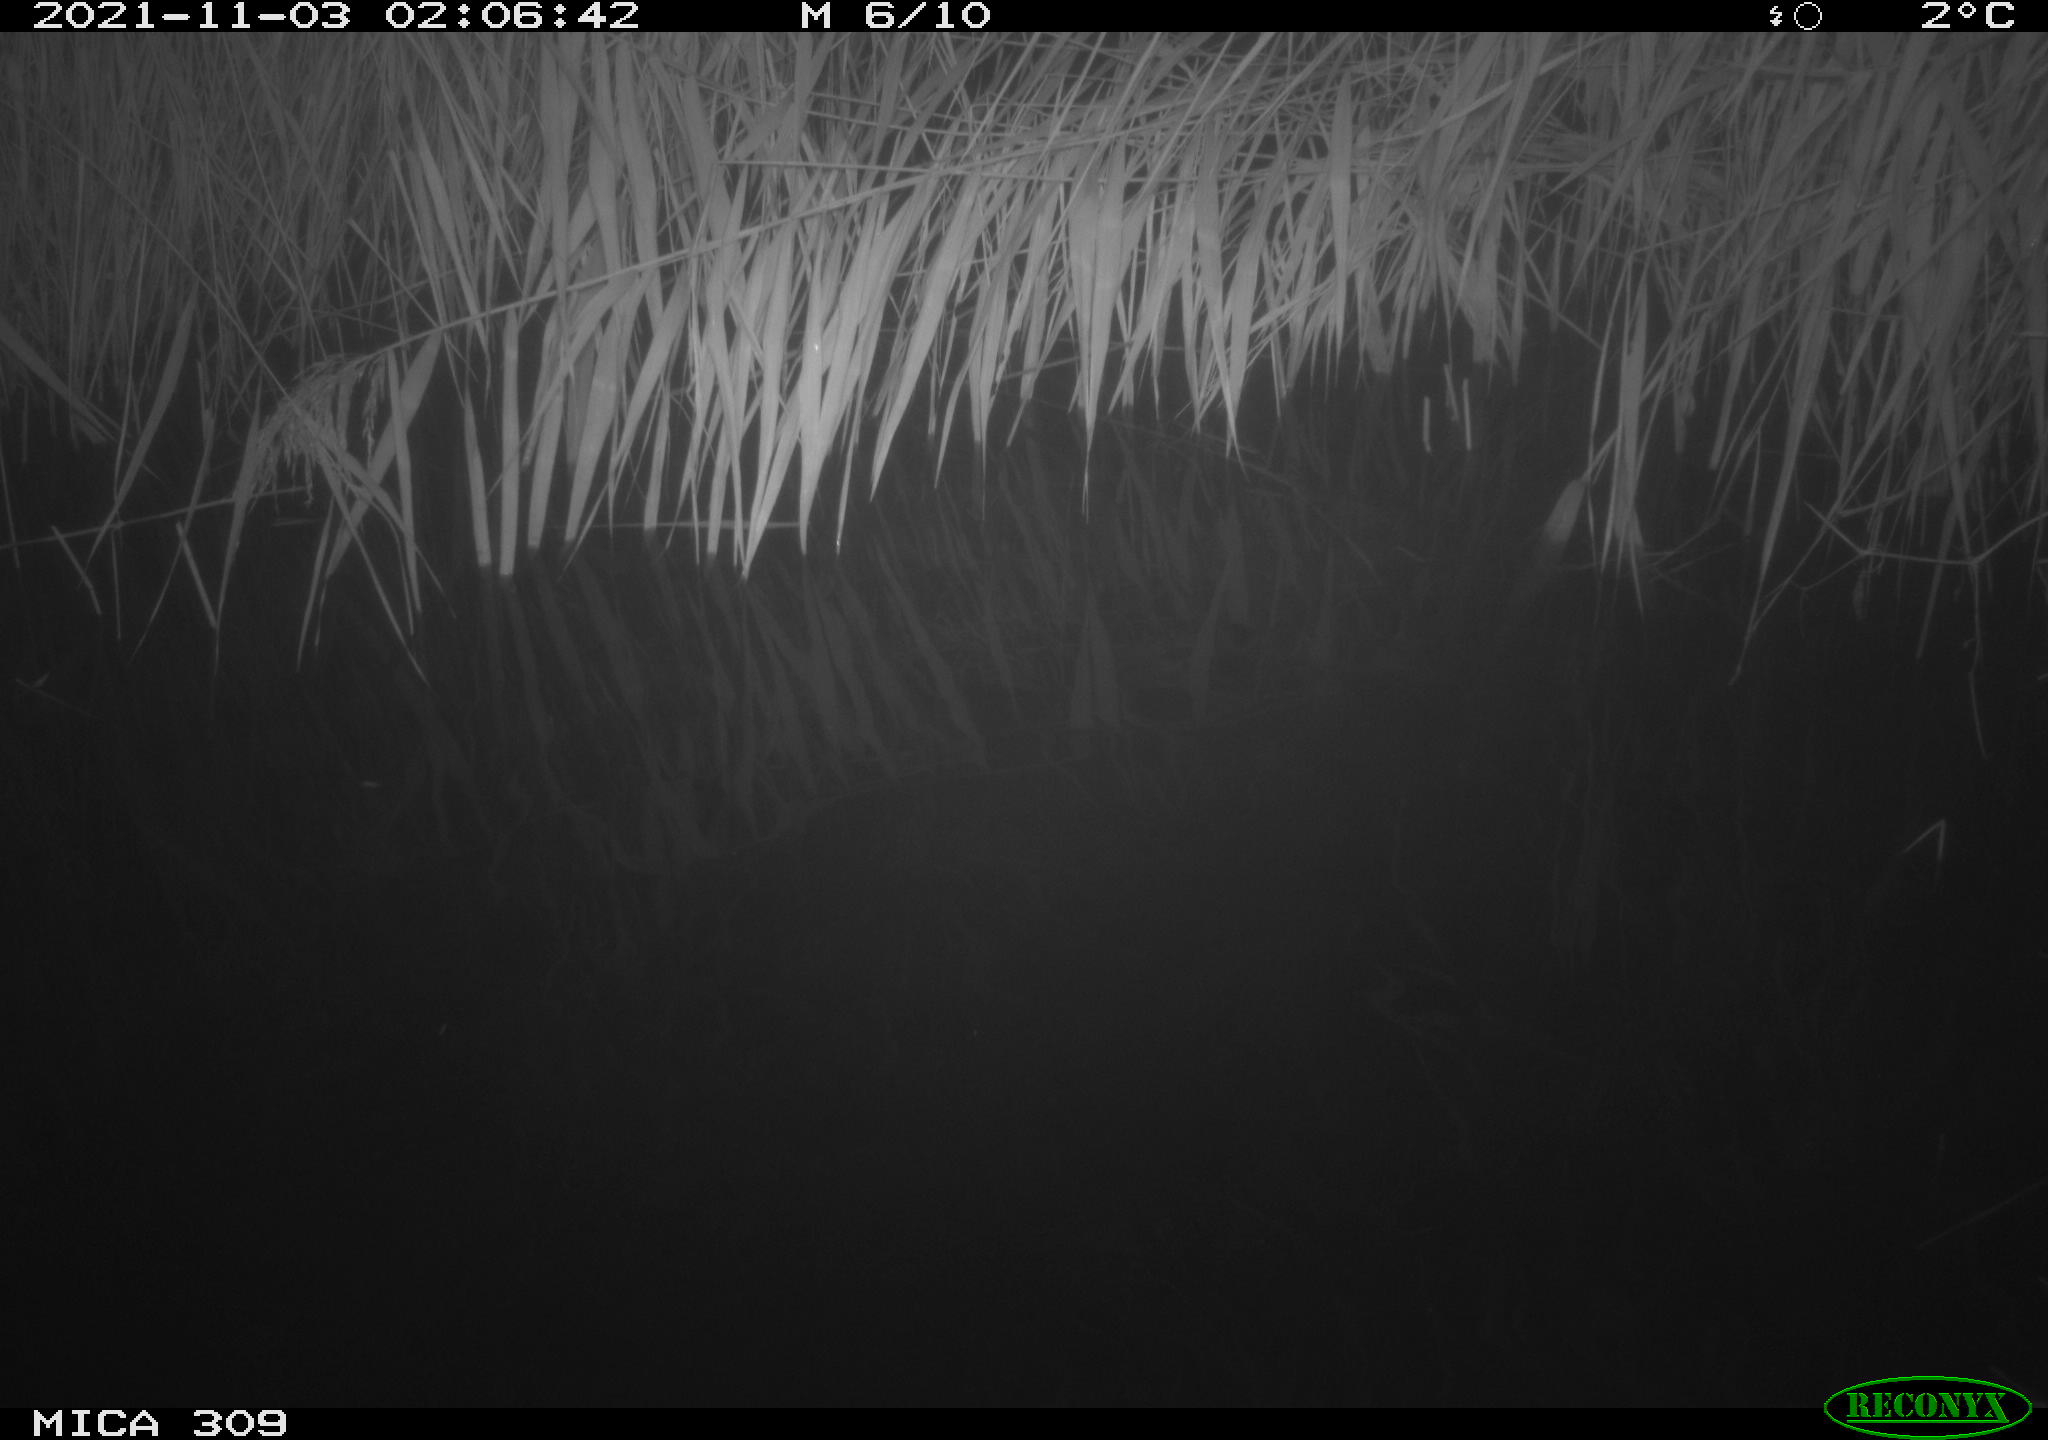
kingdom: Animalia
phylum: Chordata
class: Mammalia
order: Rodentia
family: Muridae
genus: Rattus
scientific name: Rattus norvegicus
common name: Brown rat
